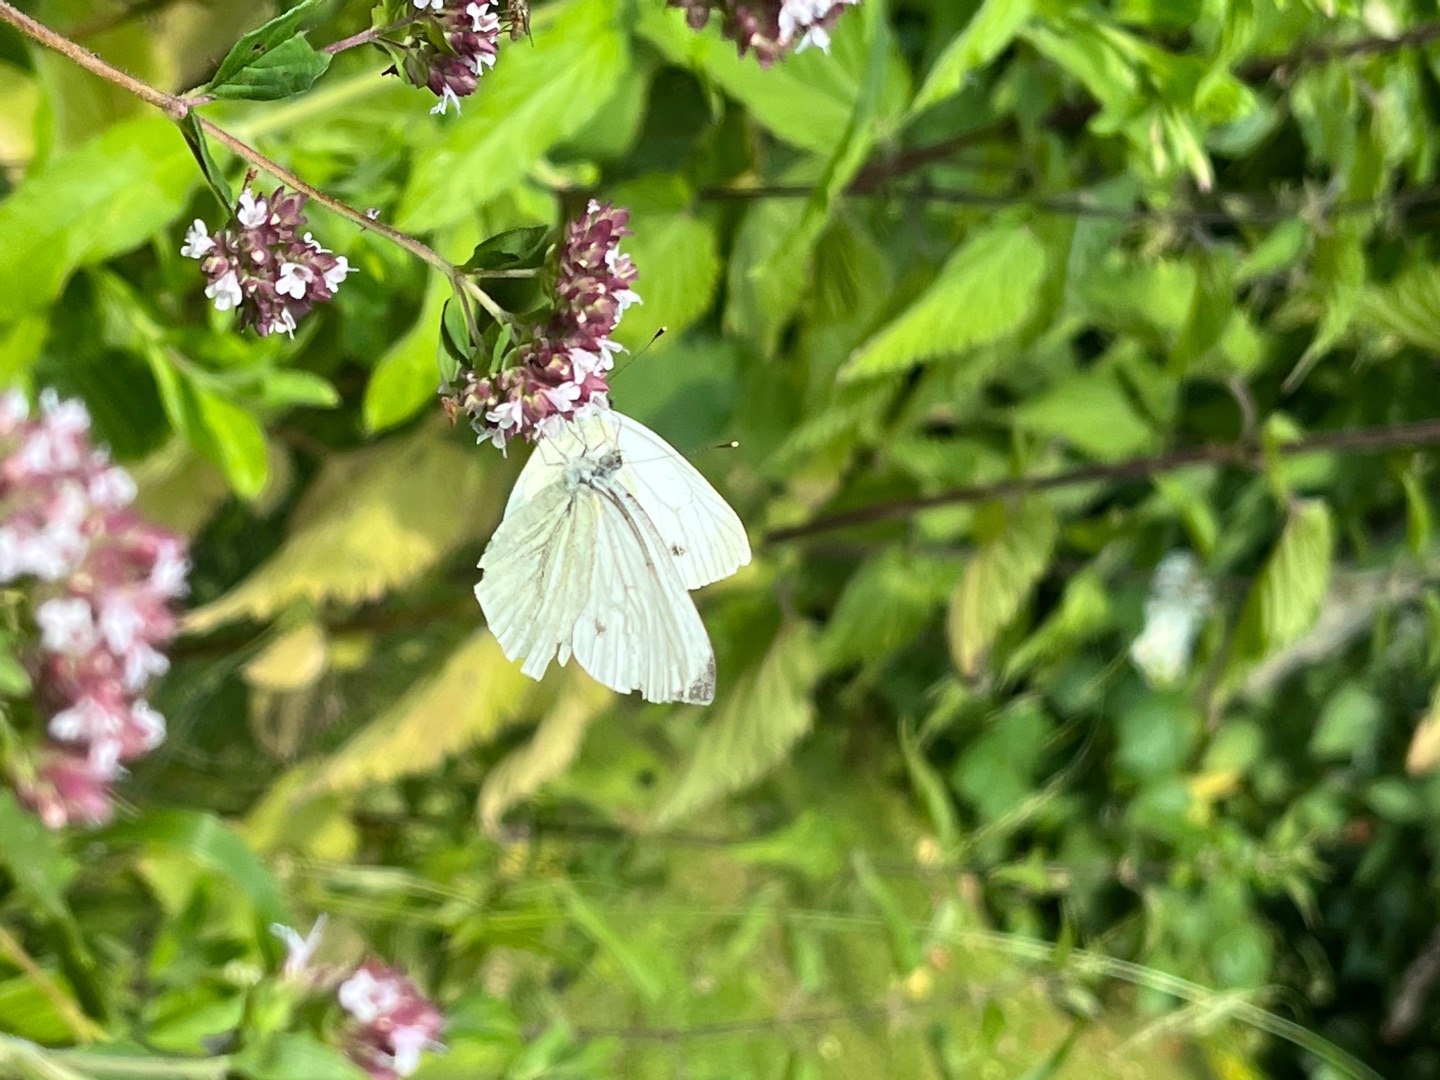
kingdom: Animalia
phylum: Arthropoda
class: Insecta
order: Lepidoptera
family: Pieridae
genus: Pieris
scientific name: Pieris napi
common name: Grønåret kålsommerfugl
